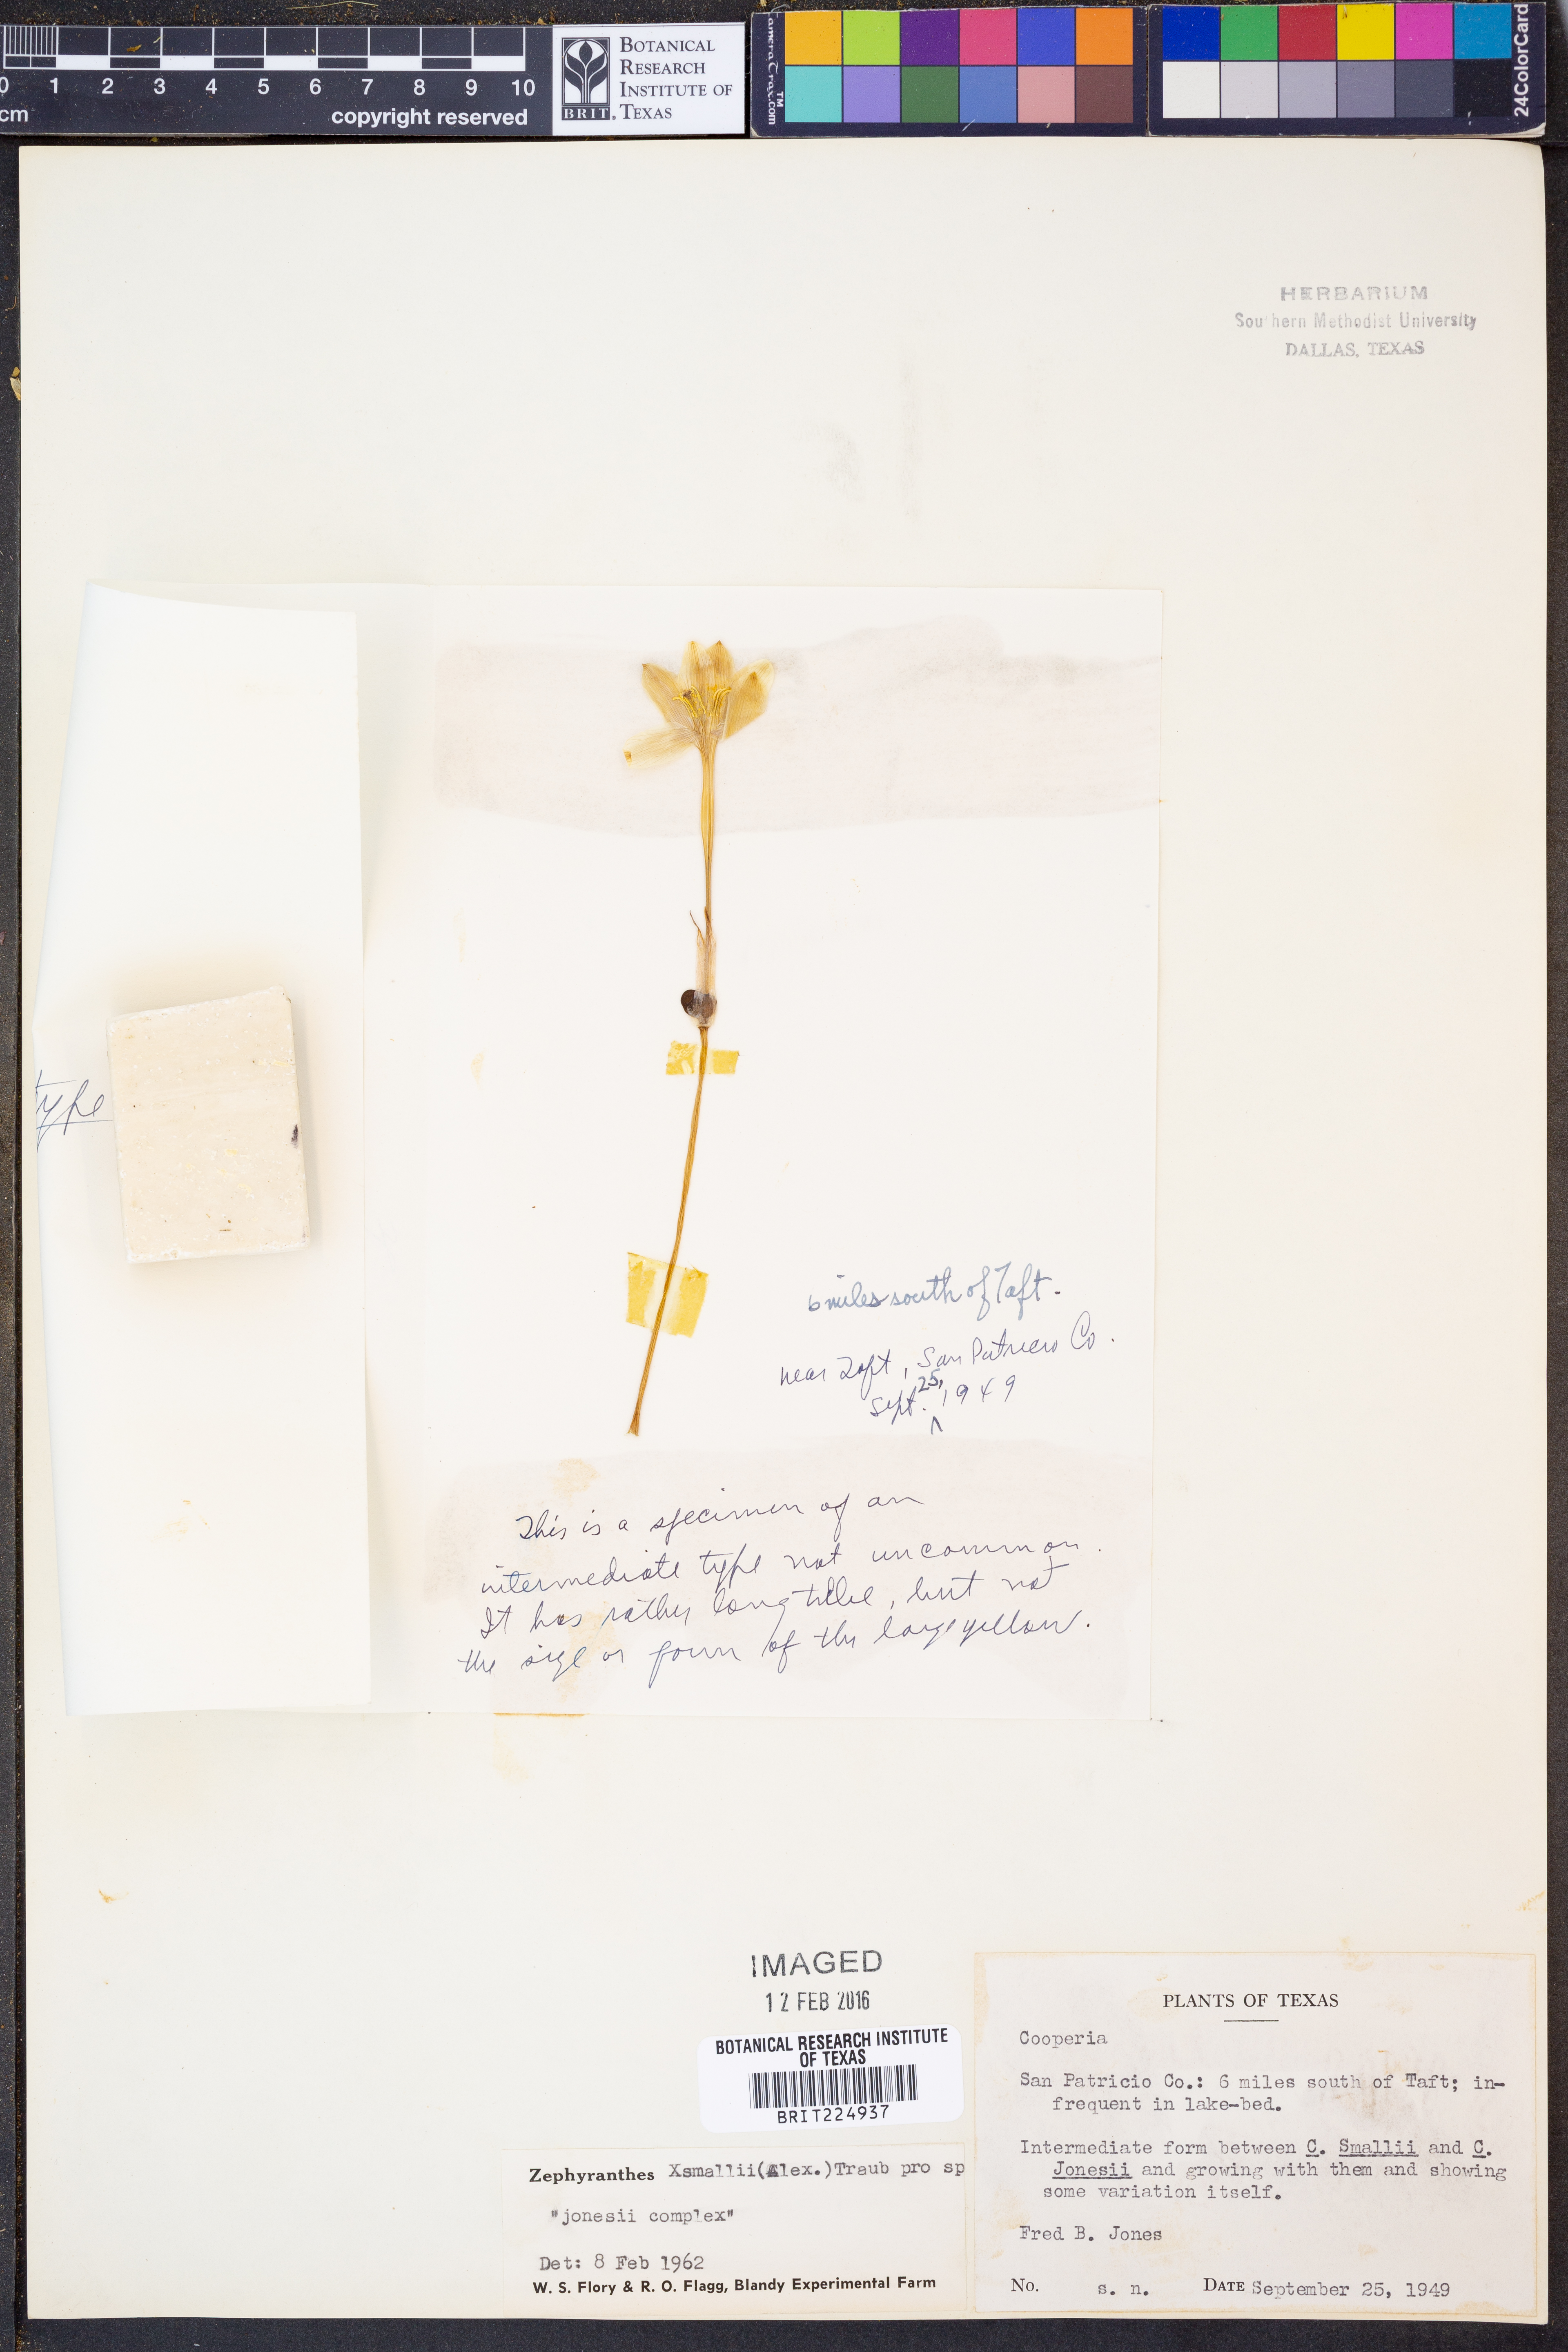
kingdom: Plantae
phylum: Tracheophyta
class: Liliopsida
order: Asparagales
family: Amaryllidaceae
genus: Zephyranthes
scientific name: Zephyranthes smallii
